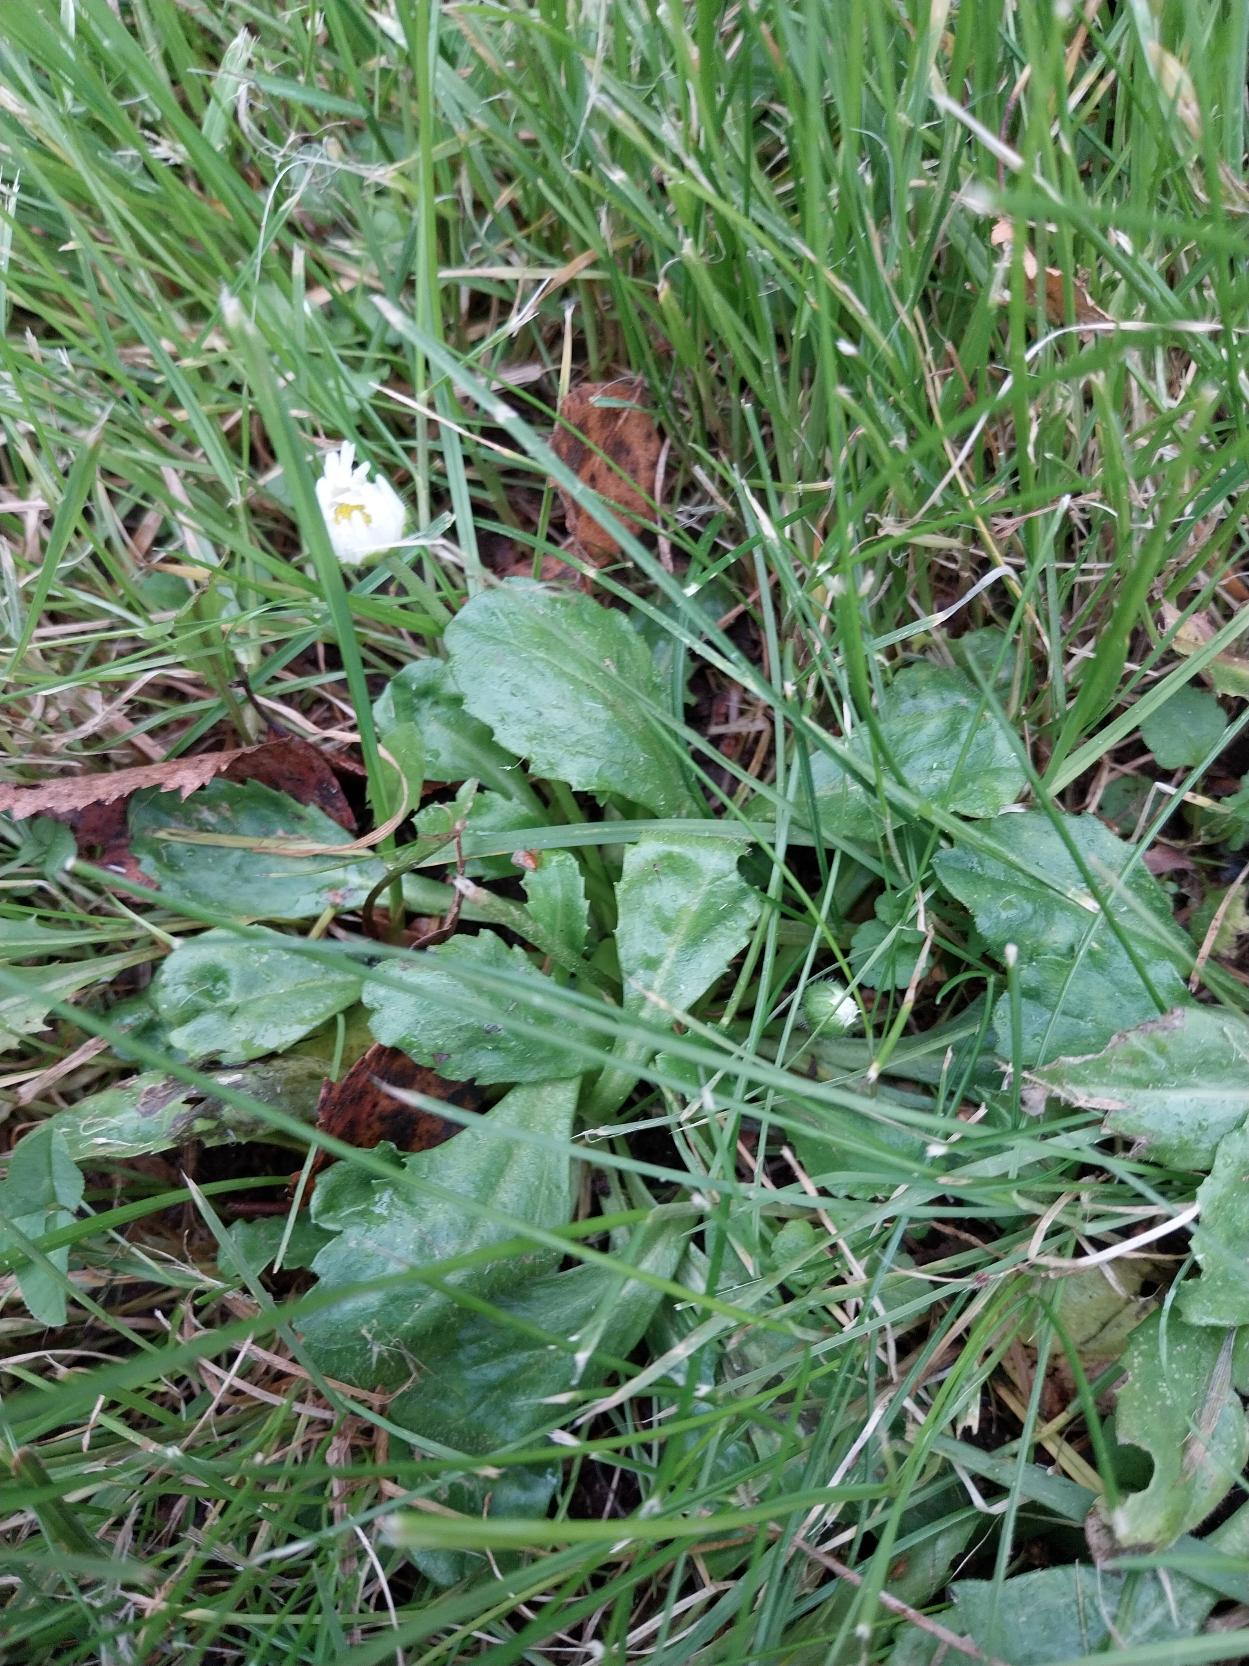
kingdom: Plantae
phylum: Tracheophyta
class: Magnoliopsida
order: Asterales
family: Asteraceae
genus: Bellis
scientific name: Bellis perennis
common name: Tusindfryd
